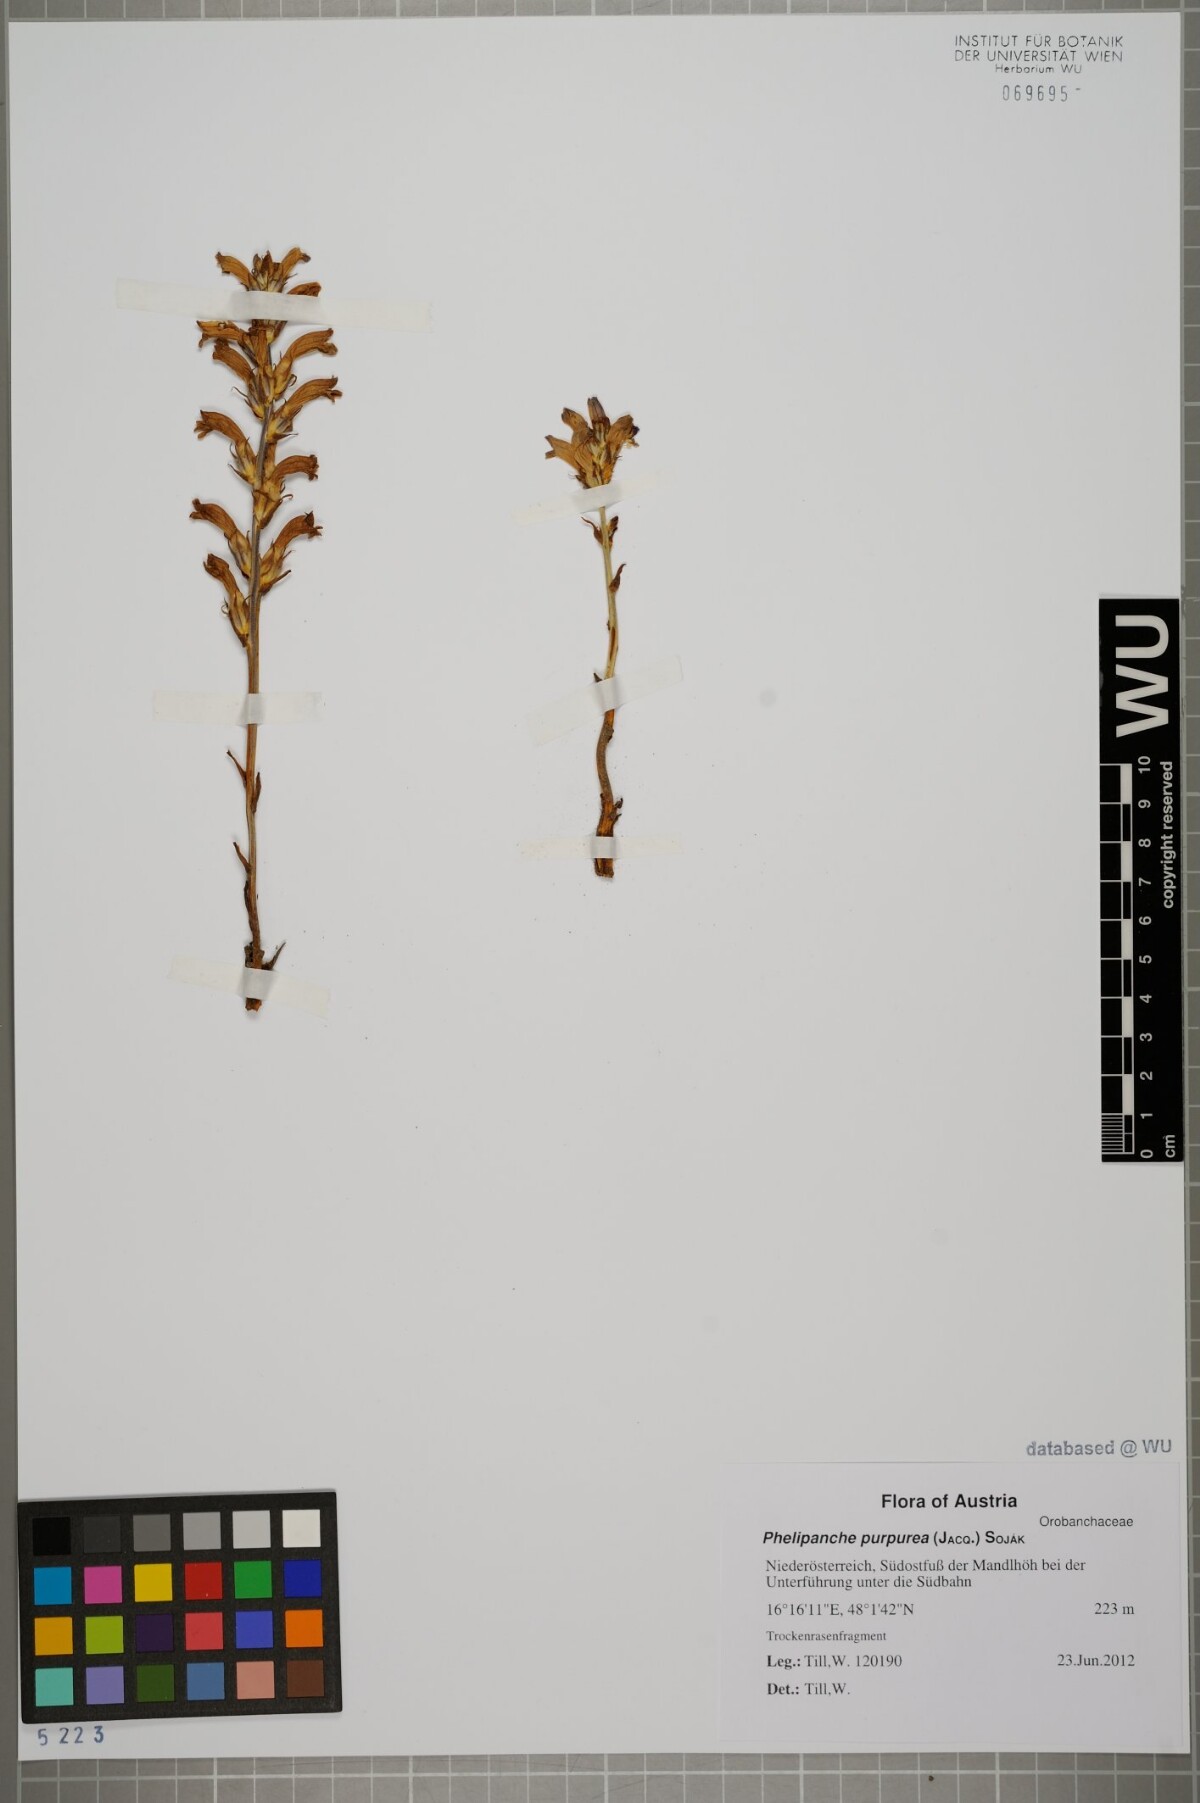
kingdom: Plantae
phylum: Tracheophyta
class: Magnoliopsida
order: Lamiales
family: Orobanchaceae
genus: Phelipanche
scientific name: Phelipanche purpurea
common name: Purple broomrape
